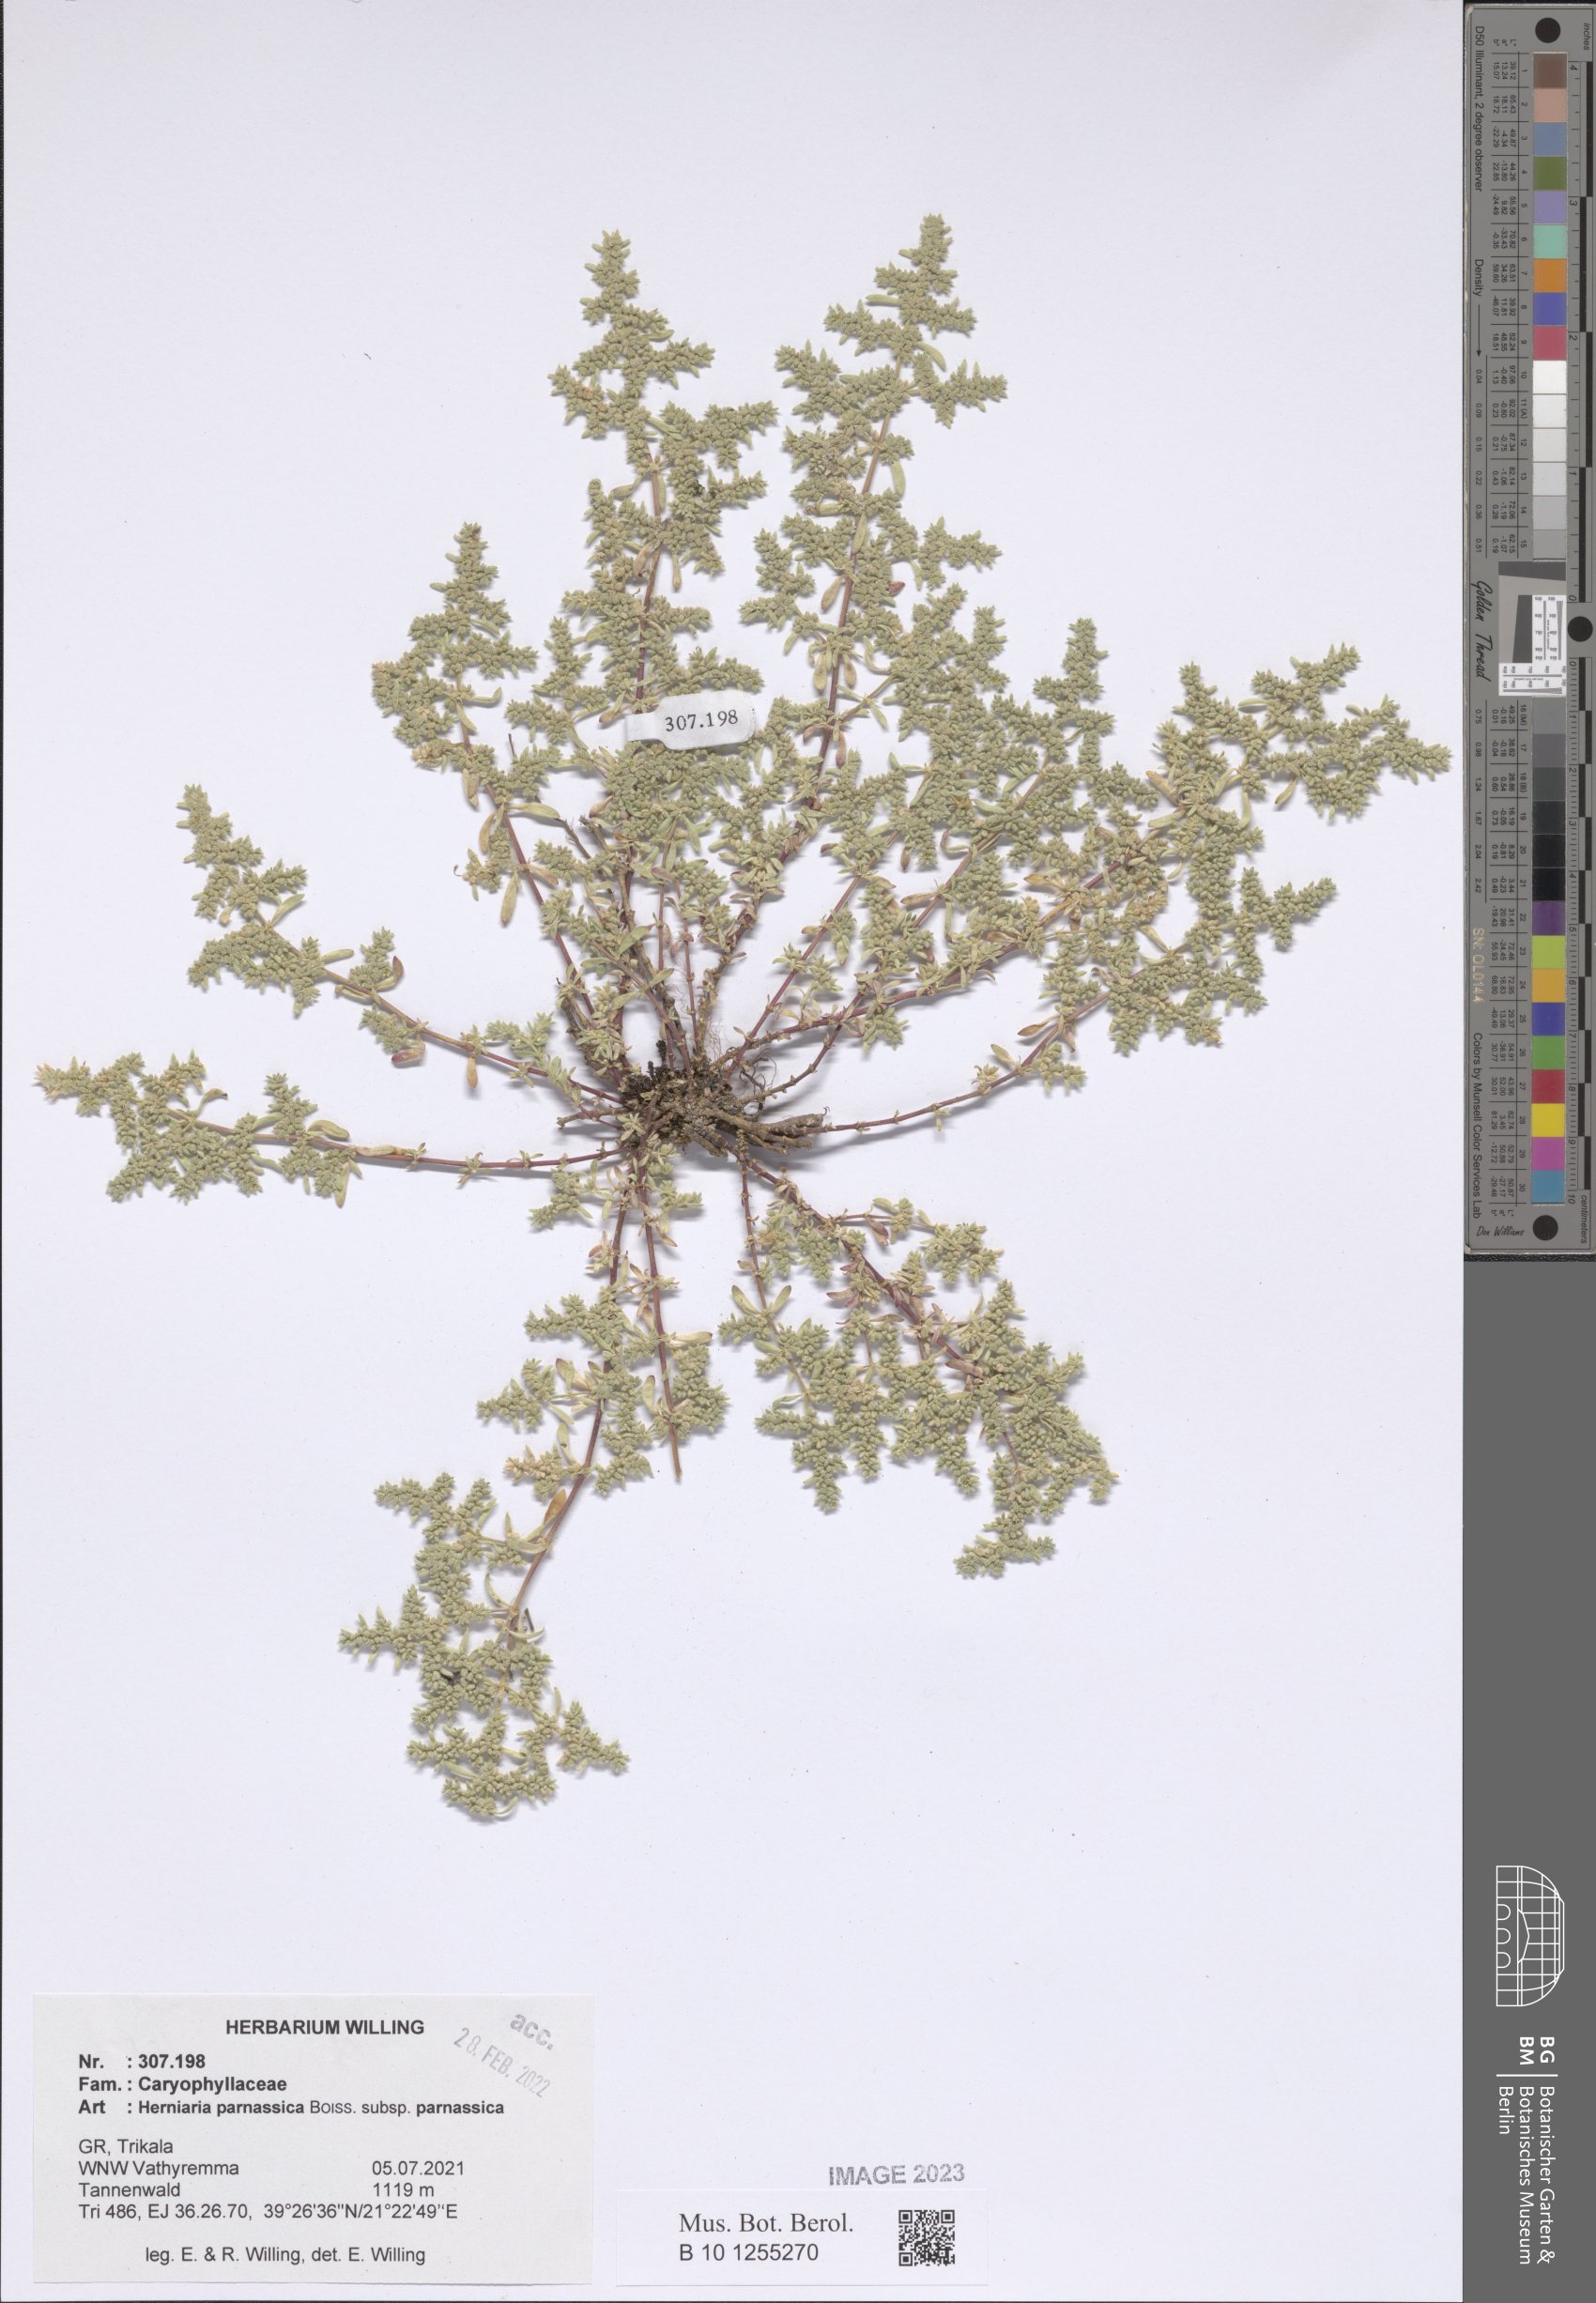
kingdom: Plantae
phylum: Tracheophyta
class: Magnoliopsida
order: Caryophyllales
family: Caryophyllaceae
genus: Herniaria
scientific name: Herniaria parnassica
